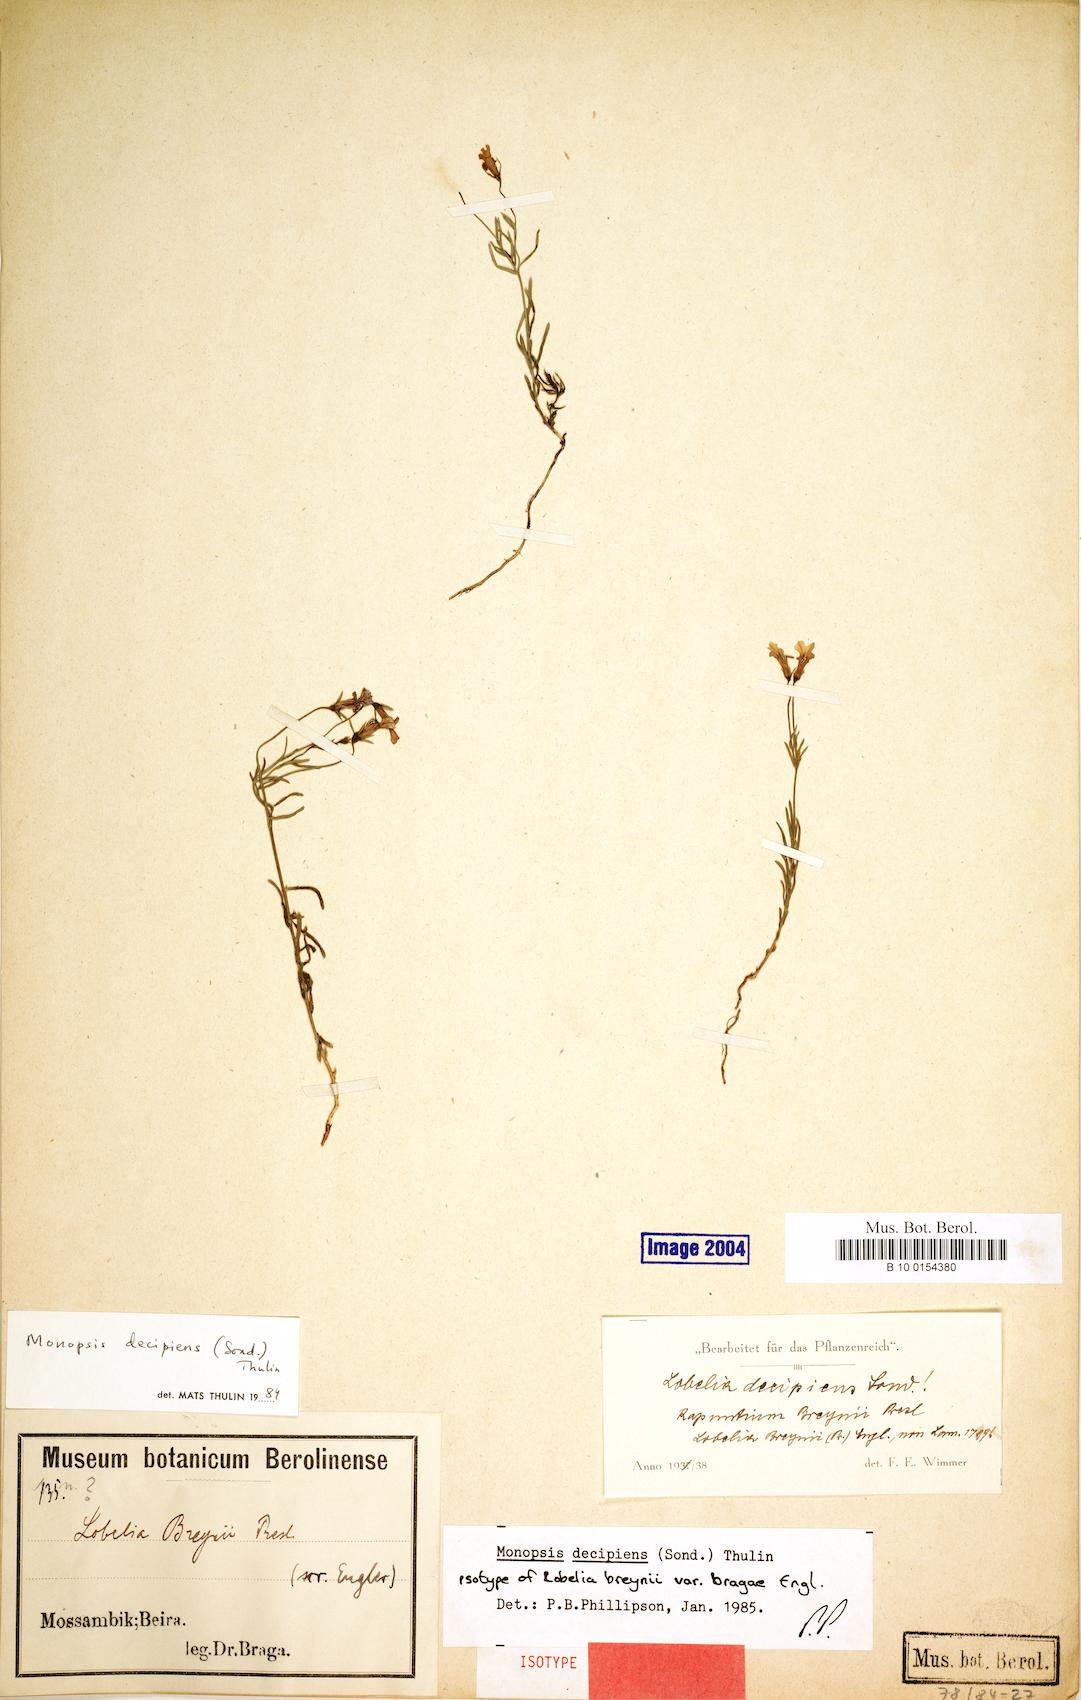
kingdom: Plantae
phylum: Tracheophyta
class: Magnoliopsida
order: Asterales
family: Campanulaceae
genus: Monopsis
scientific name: Monopsis decipiens
